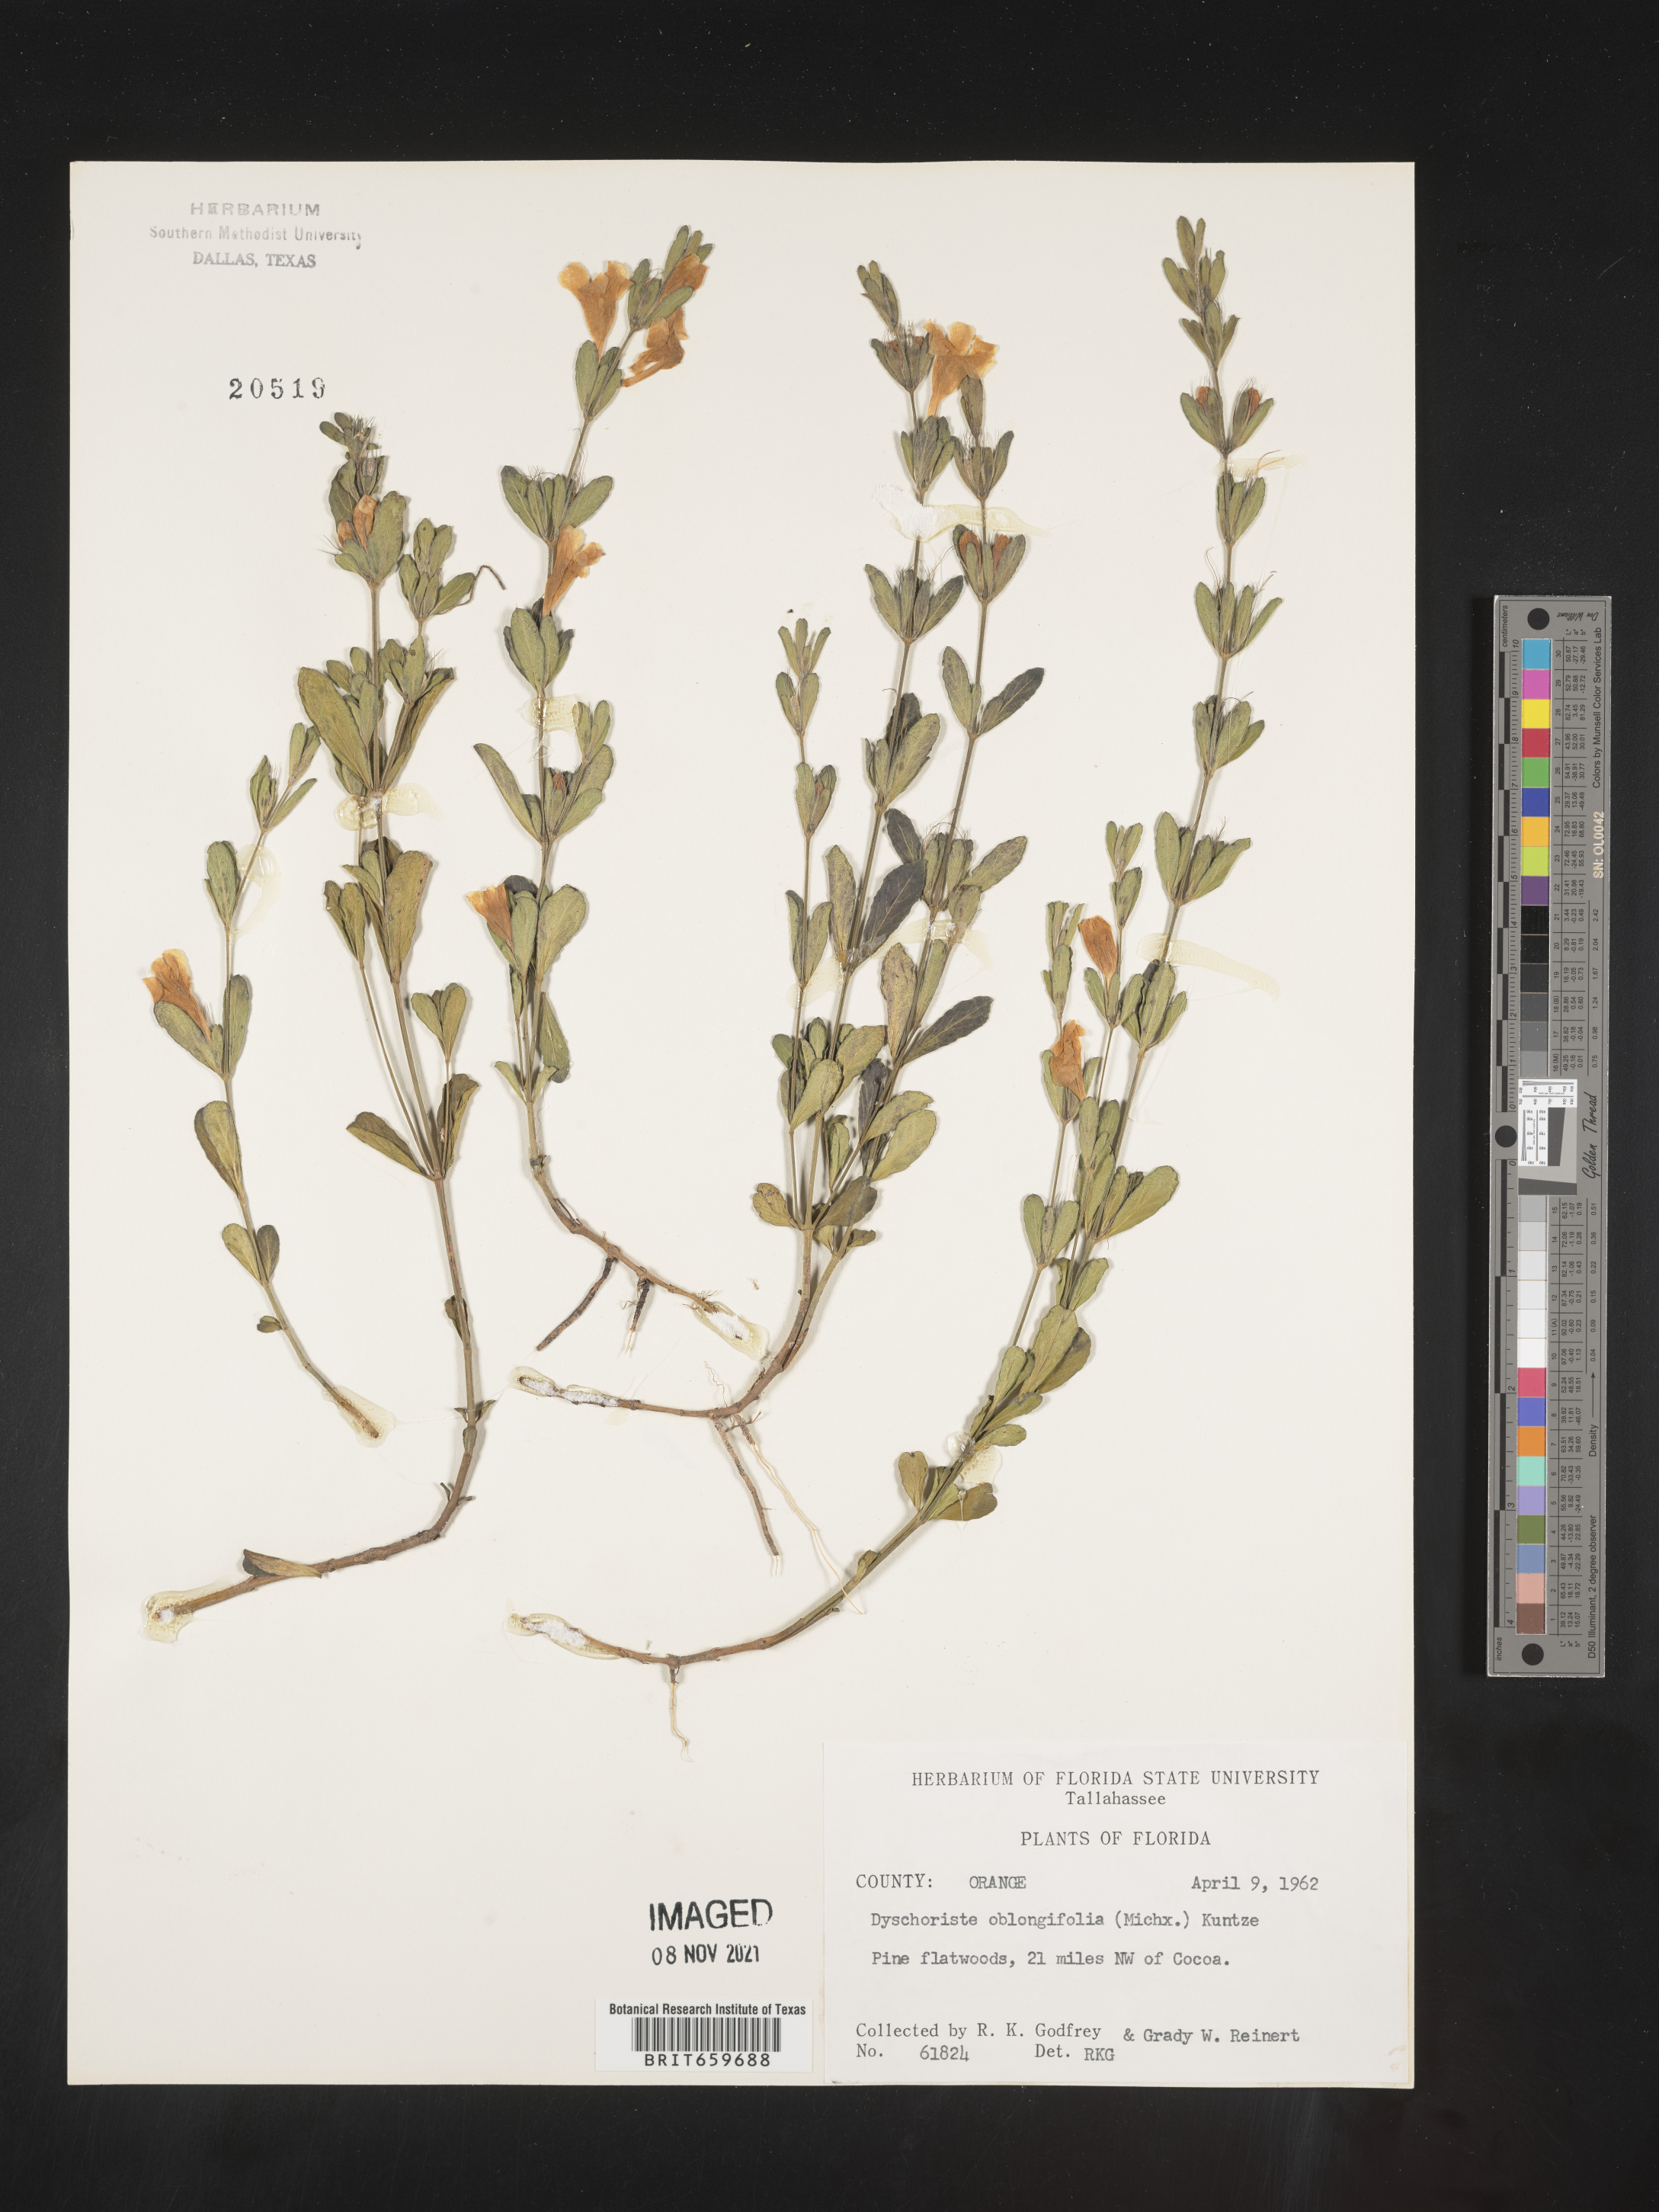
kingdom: Plantae
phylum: Tracheophyta
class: Magnoliopsida
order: Lamiales
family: Acanthaceae
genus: Dyschoriste
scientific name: Dyschoriste oblongifolia
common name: Blue twinflower
